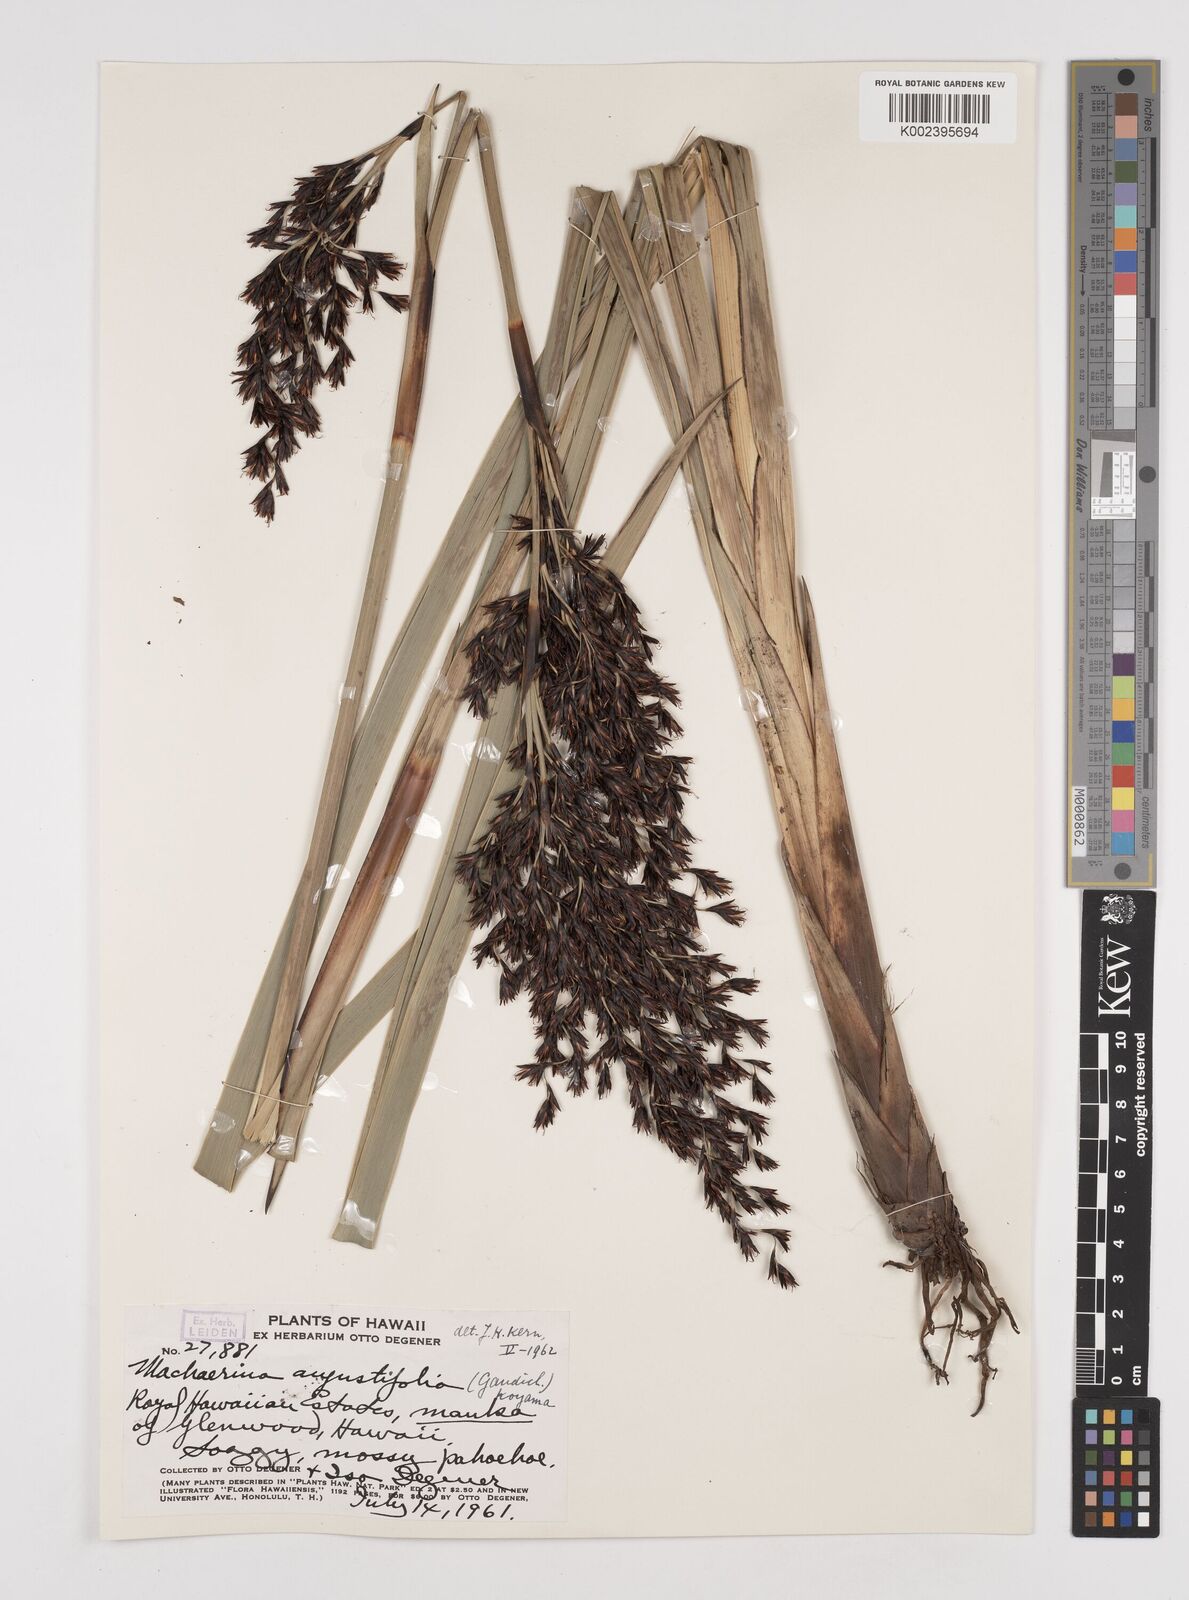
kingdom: Plantae
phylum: Tracheophyta
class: Liliopsida
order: Poales
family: Cyperaceae
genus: Machaerina
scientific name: Machaerina angustifolia
